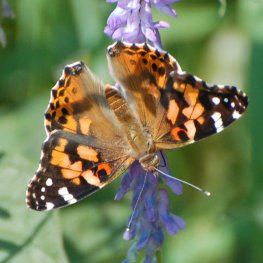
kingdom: Animalia
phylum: Arthropoda
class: Insecta
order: Lepidoptera
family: Nymphalidae
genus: Vanessa
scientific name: Vanessa cardui
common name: Painted Lady
